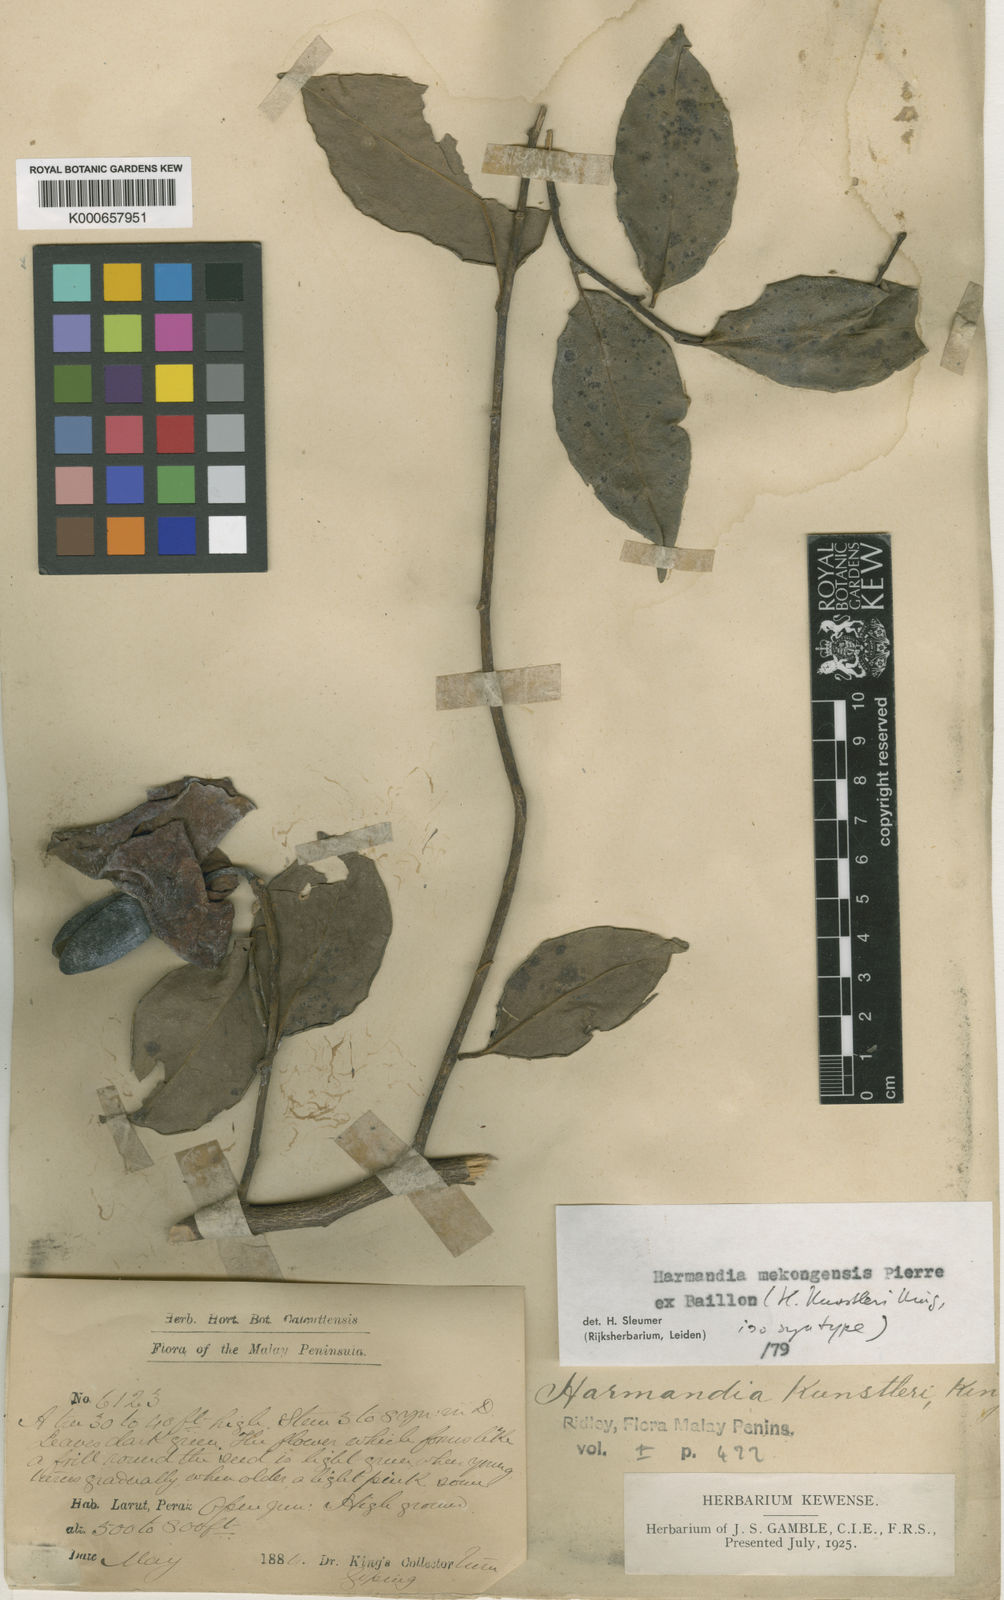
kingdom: Plantae
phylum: Tracheophyta
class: Magnoliopsida
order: Santalales
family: Aptandraceae
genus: Harmandia
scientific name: Harmandia mekongensis
